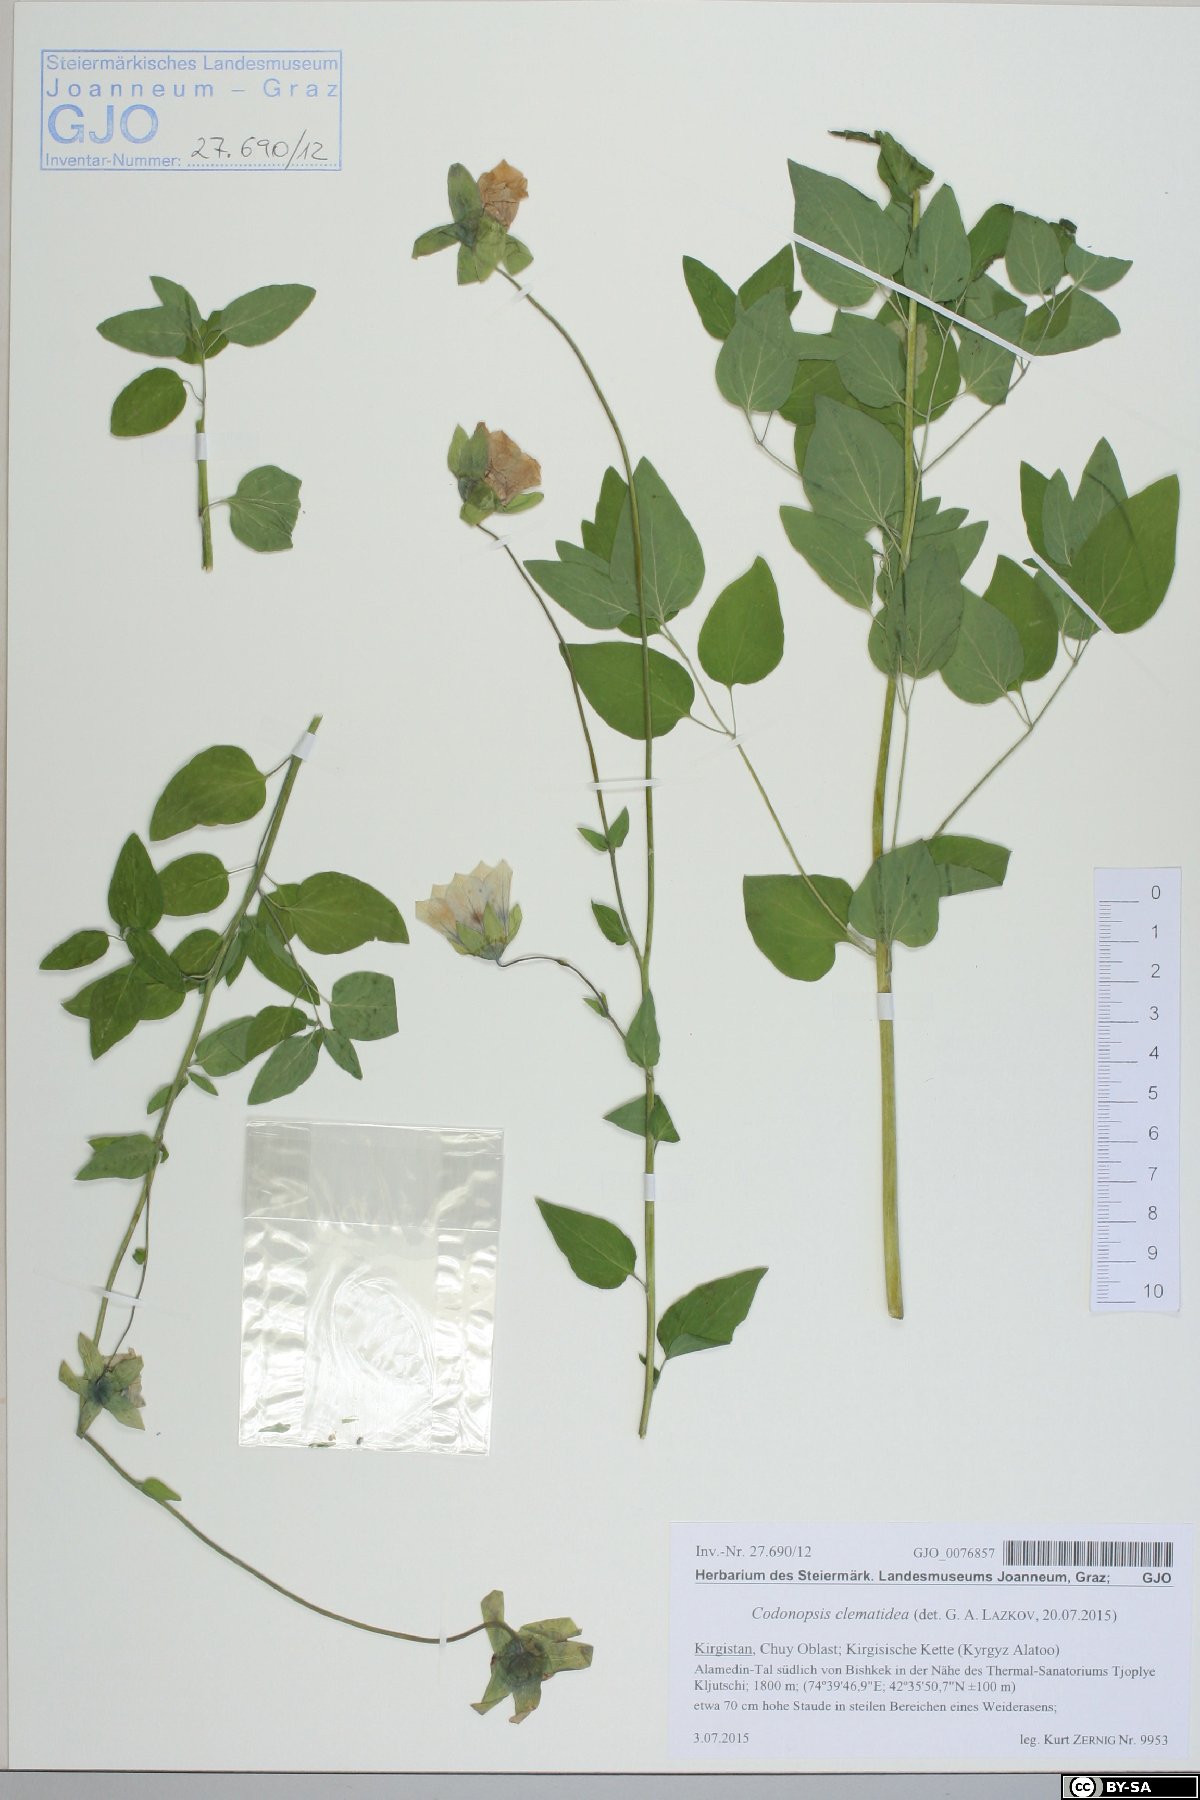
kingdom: Plantae
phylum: Tracheophyta
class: Magnoliopsida
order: Asterales
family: Campanulaceae
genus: Codonopsis
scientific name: Codonopsis clematidea
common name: Bonnet-bellflower
